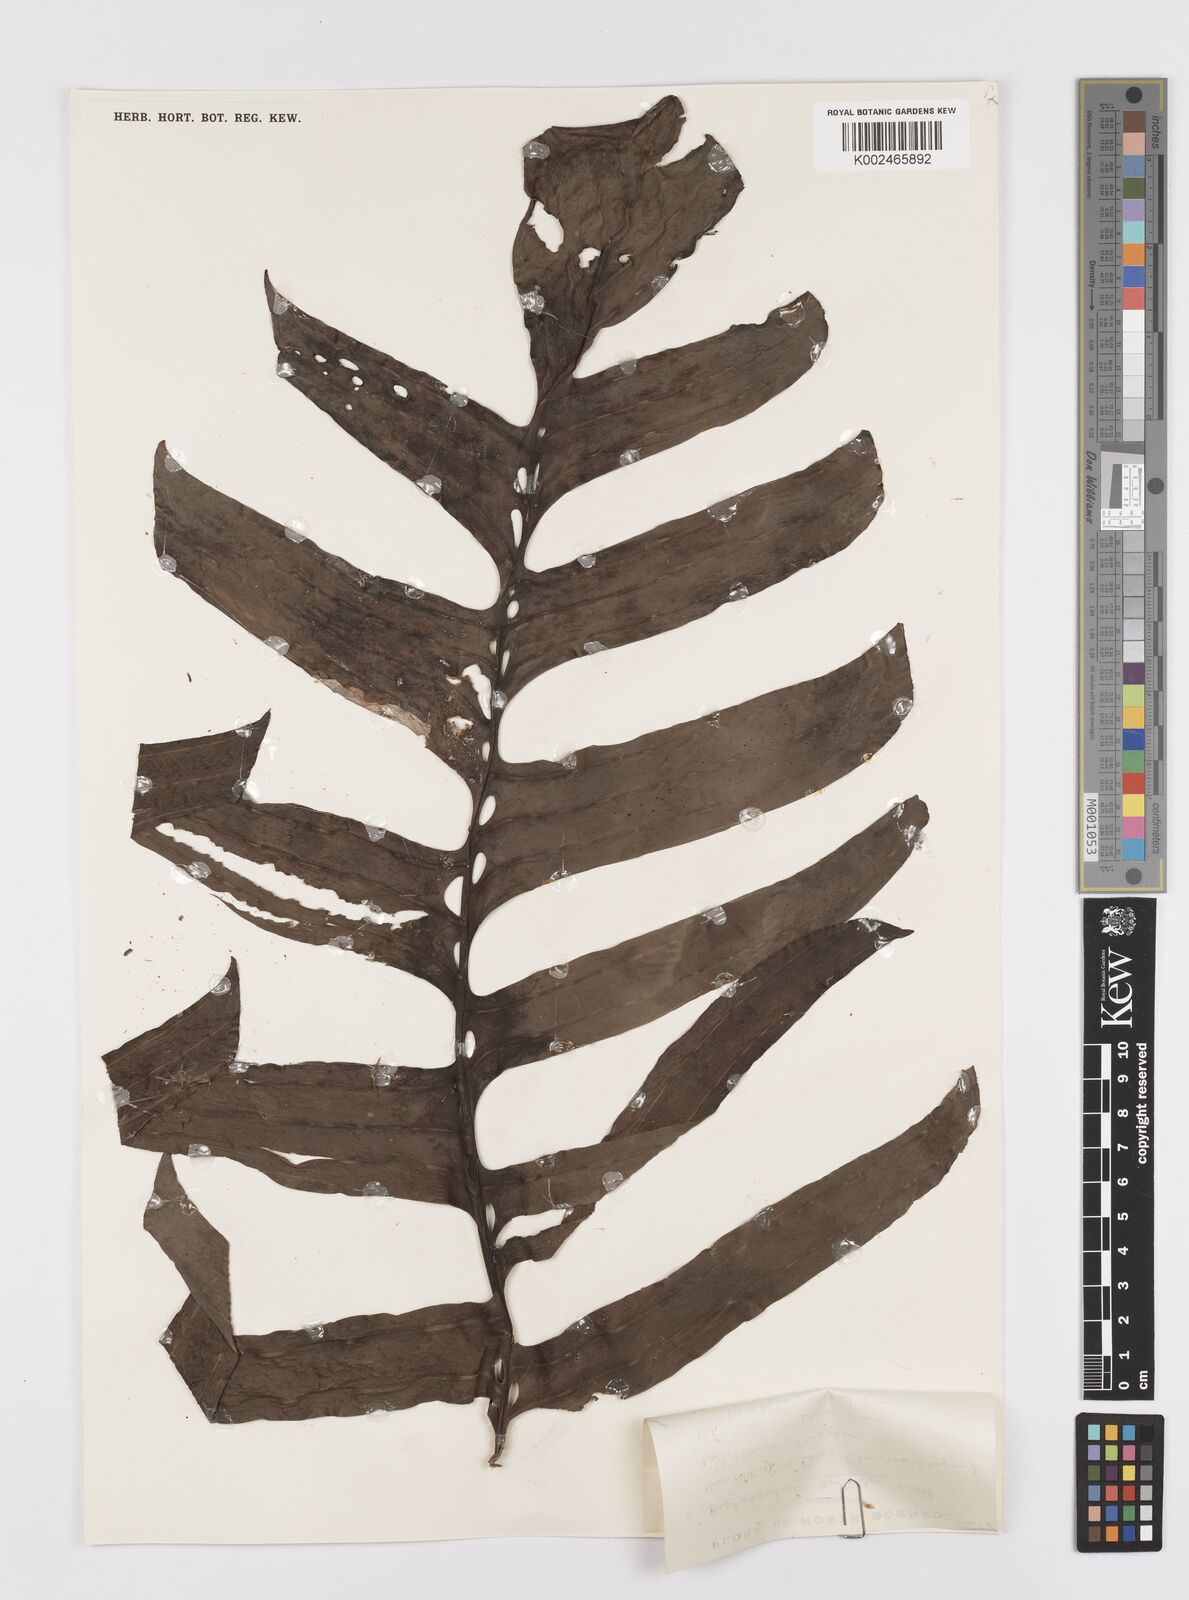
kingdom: Plantae
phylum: Tracheophyta
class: Liliopsida
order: Alismatales
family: Araceae
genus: Rhaphidophora
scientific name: Rhaphidophora korthalsii
